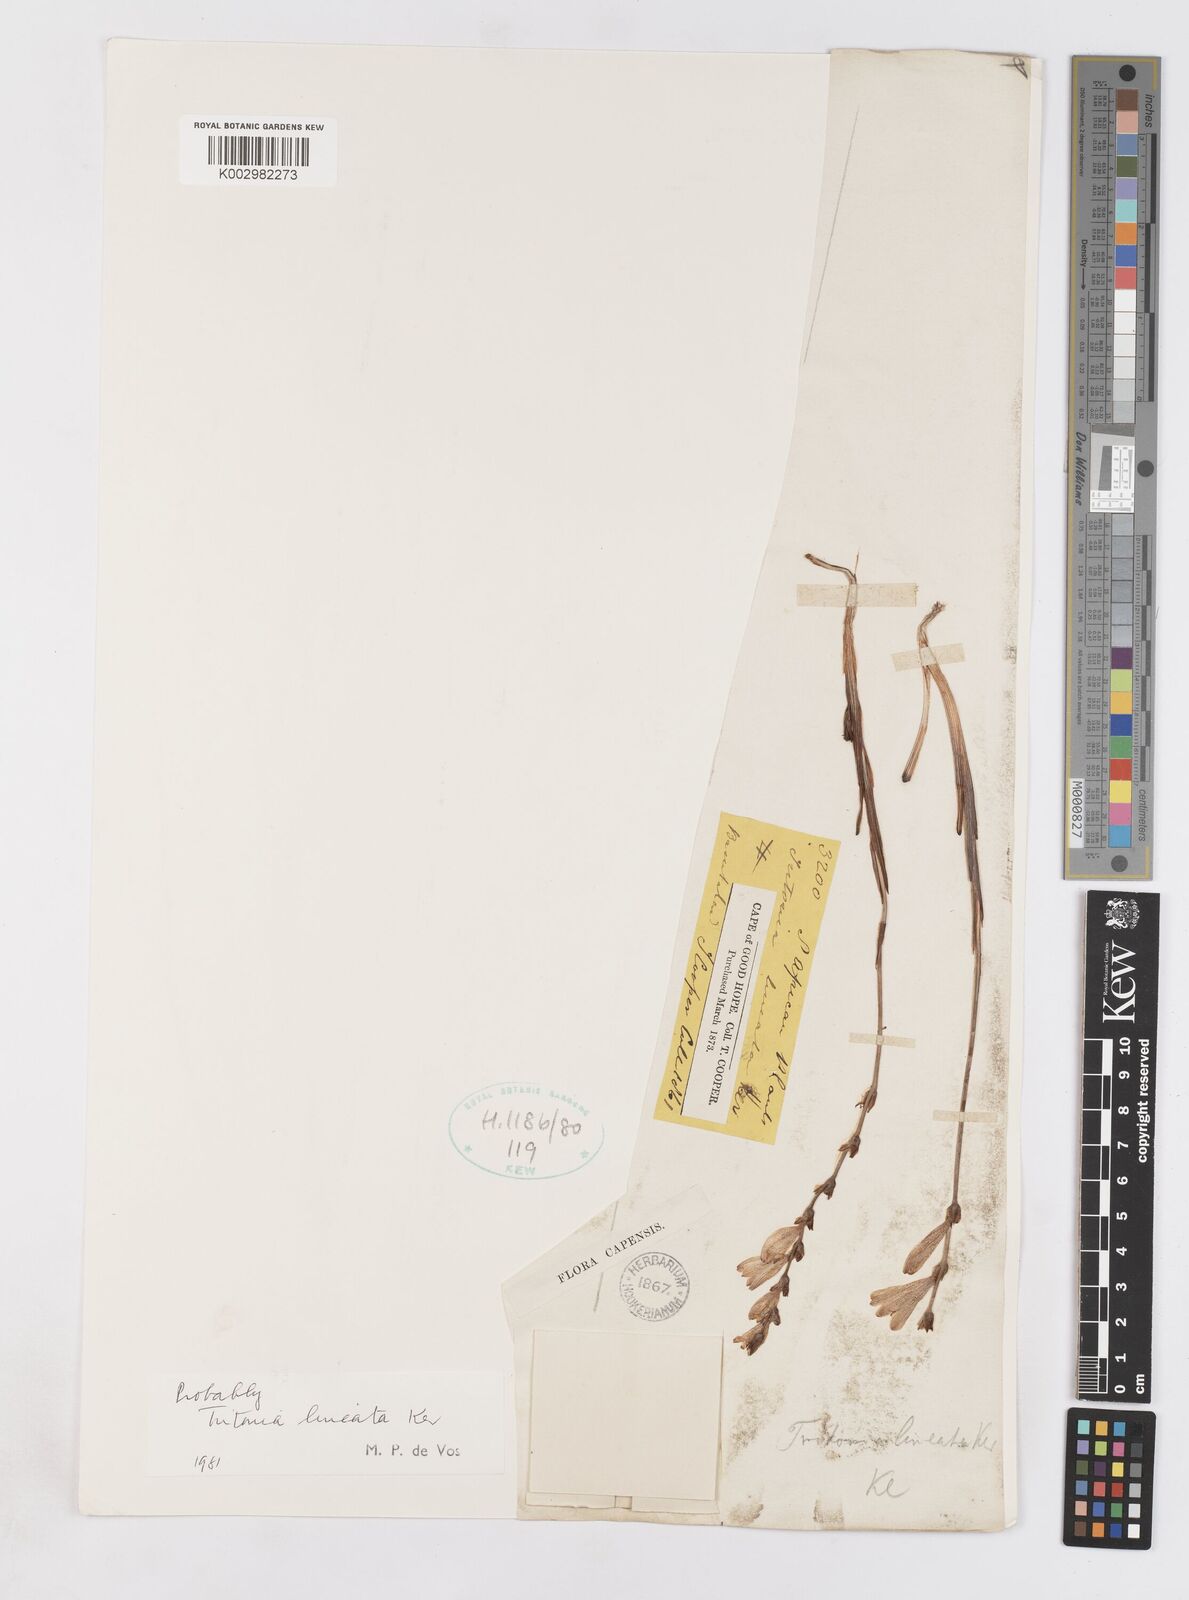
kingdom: Plantae
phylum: Tracheophyta
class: Liliopsida
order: Asparagales
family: Iridaceae
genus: Tritonia
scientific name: Tritonia gladiolaris
